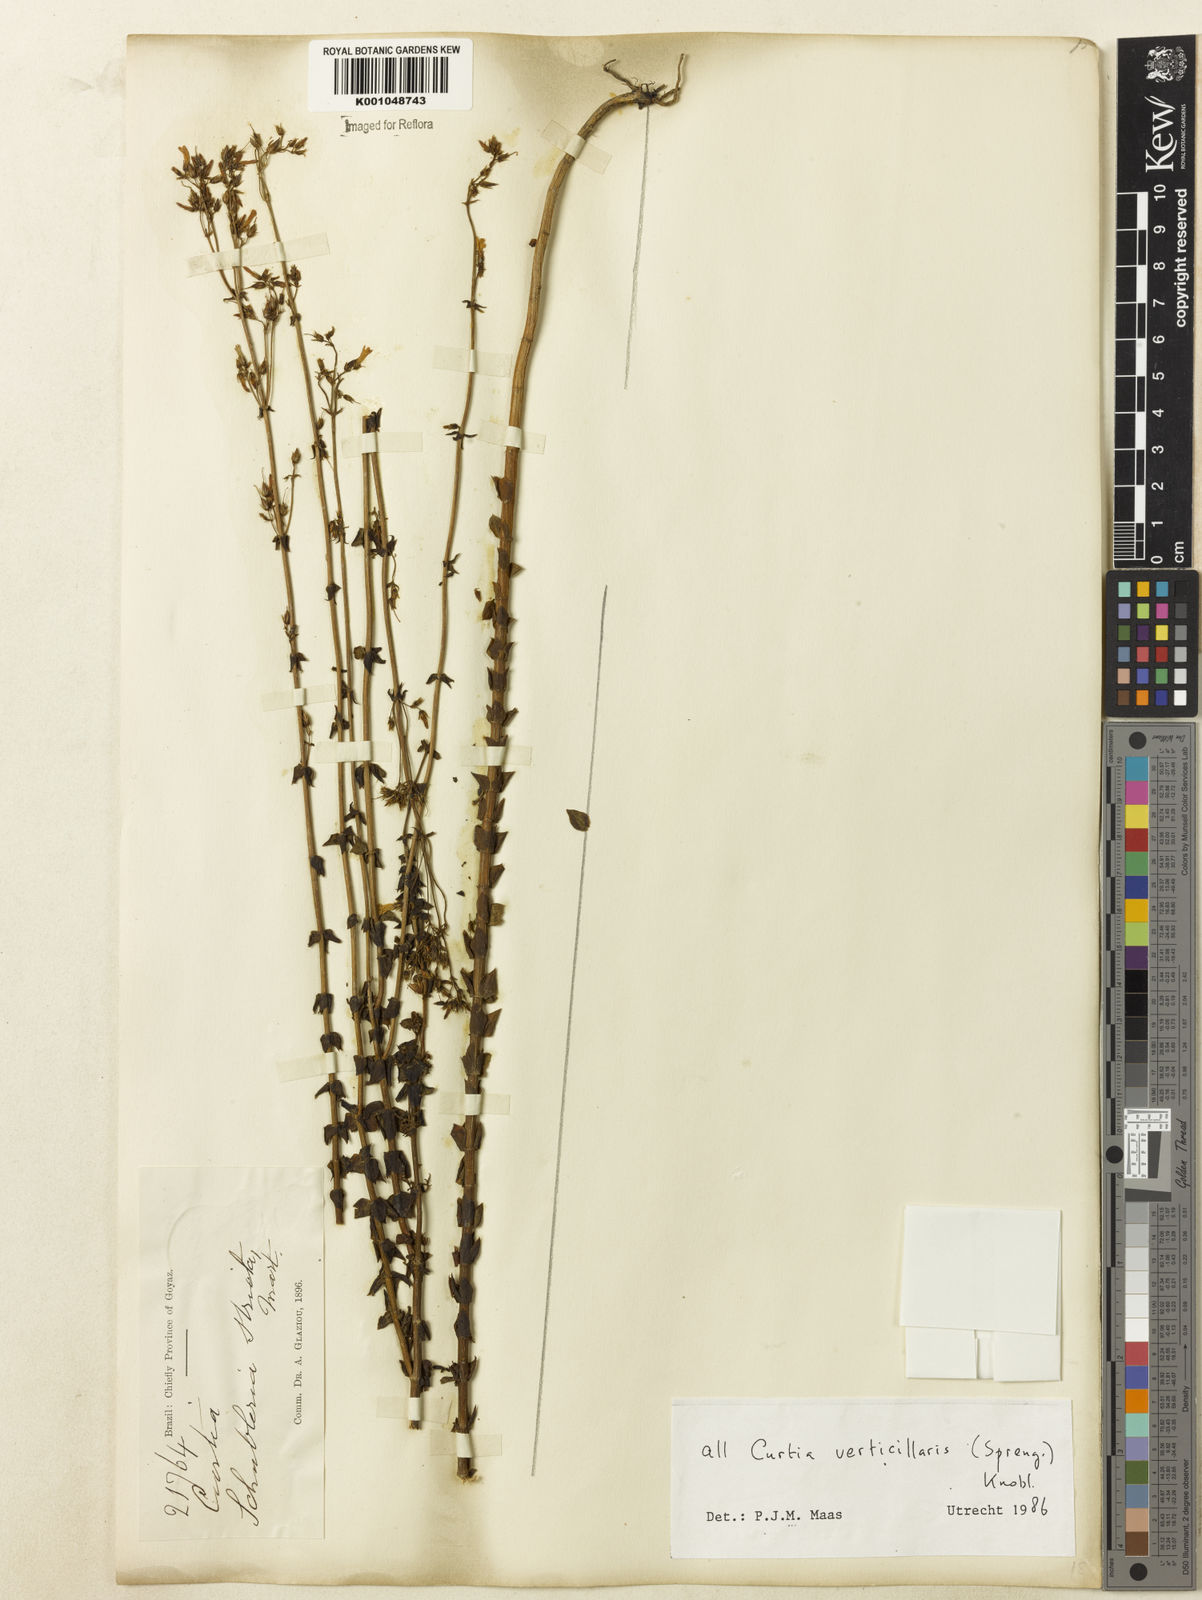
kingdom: Plantae
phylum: Tracheophyta
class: Magnoliopsida
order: Gentianales
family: Gentianaceae
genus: Curtia
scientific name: Curtia verticillaris
